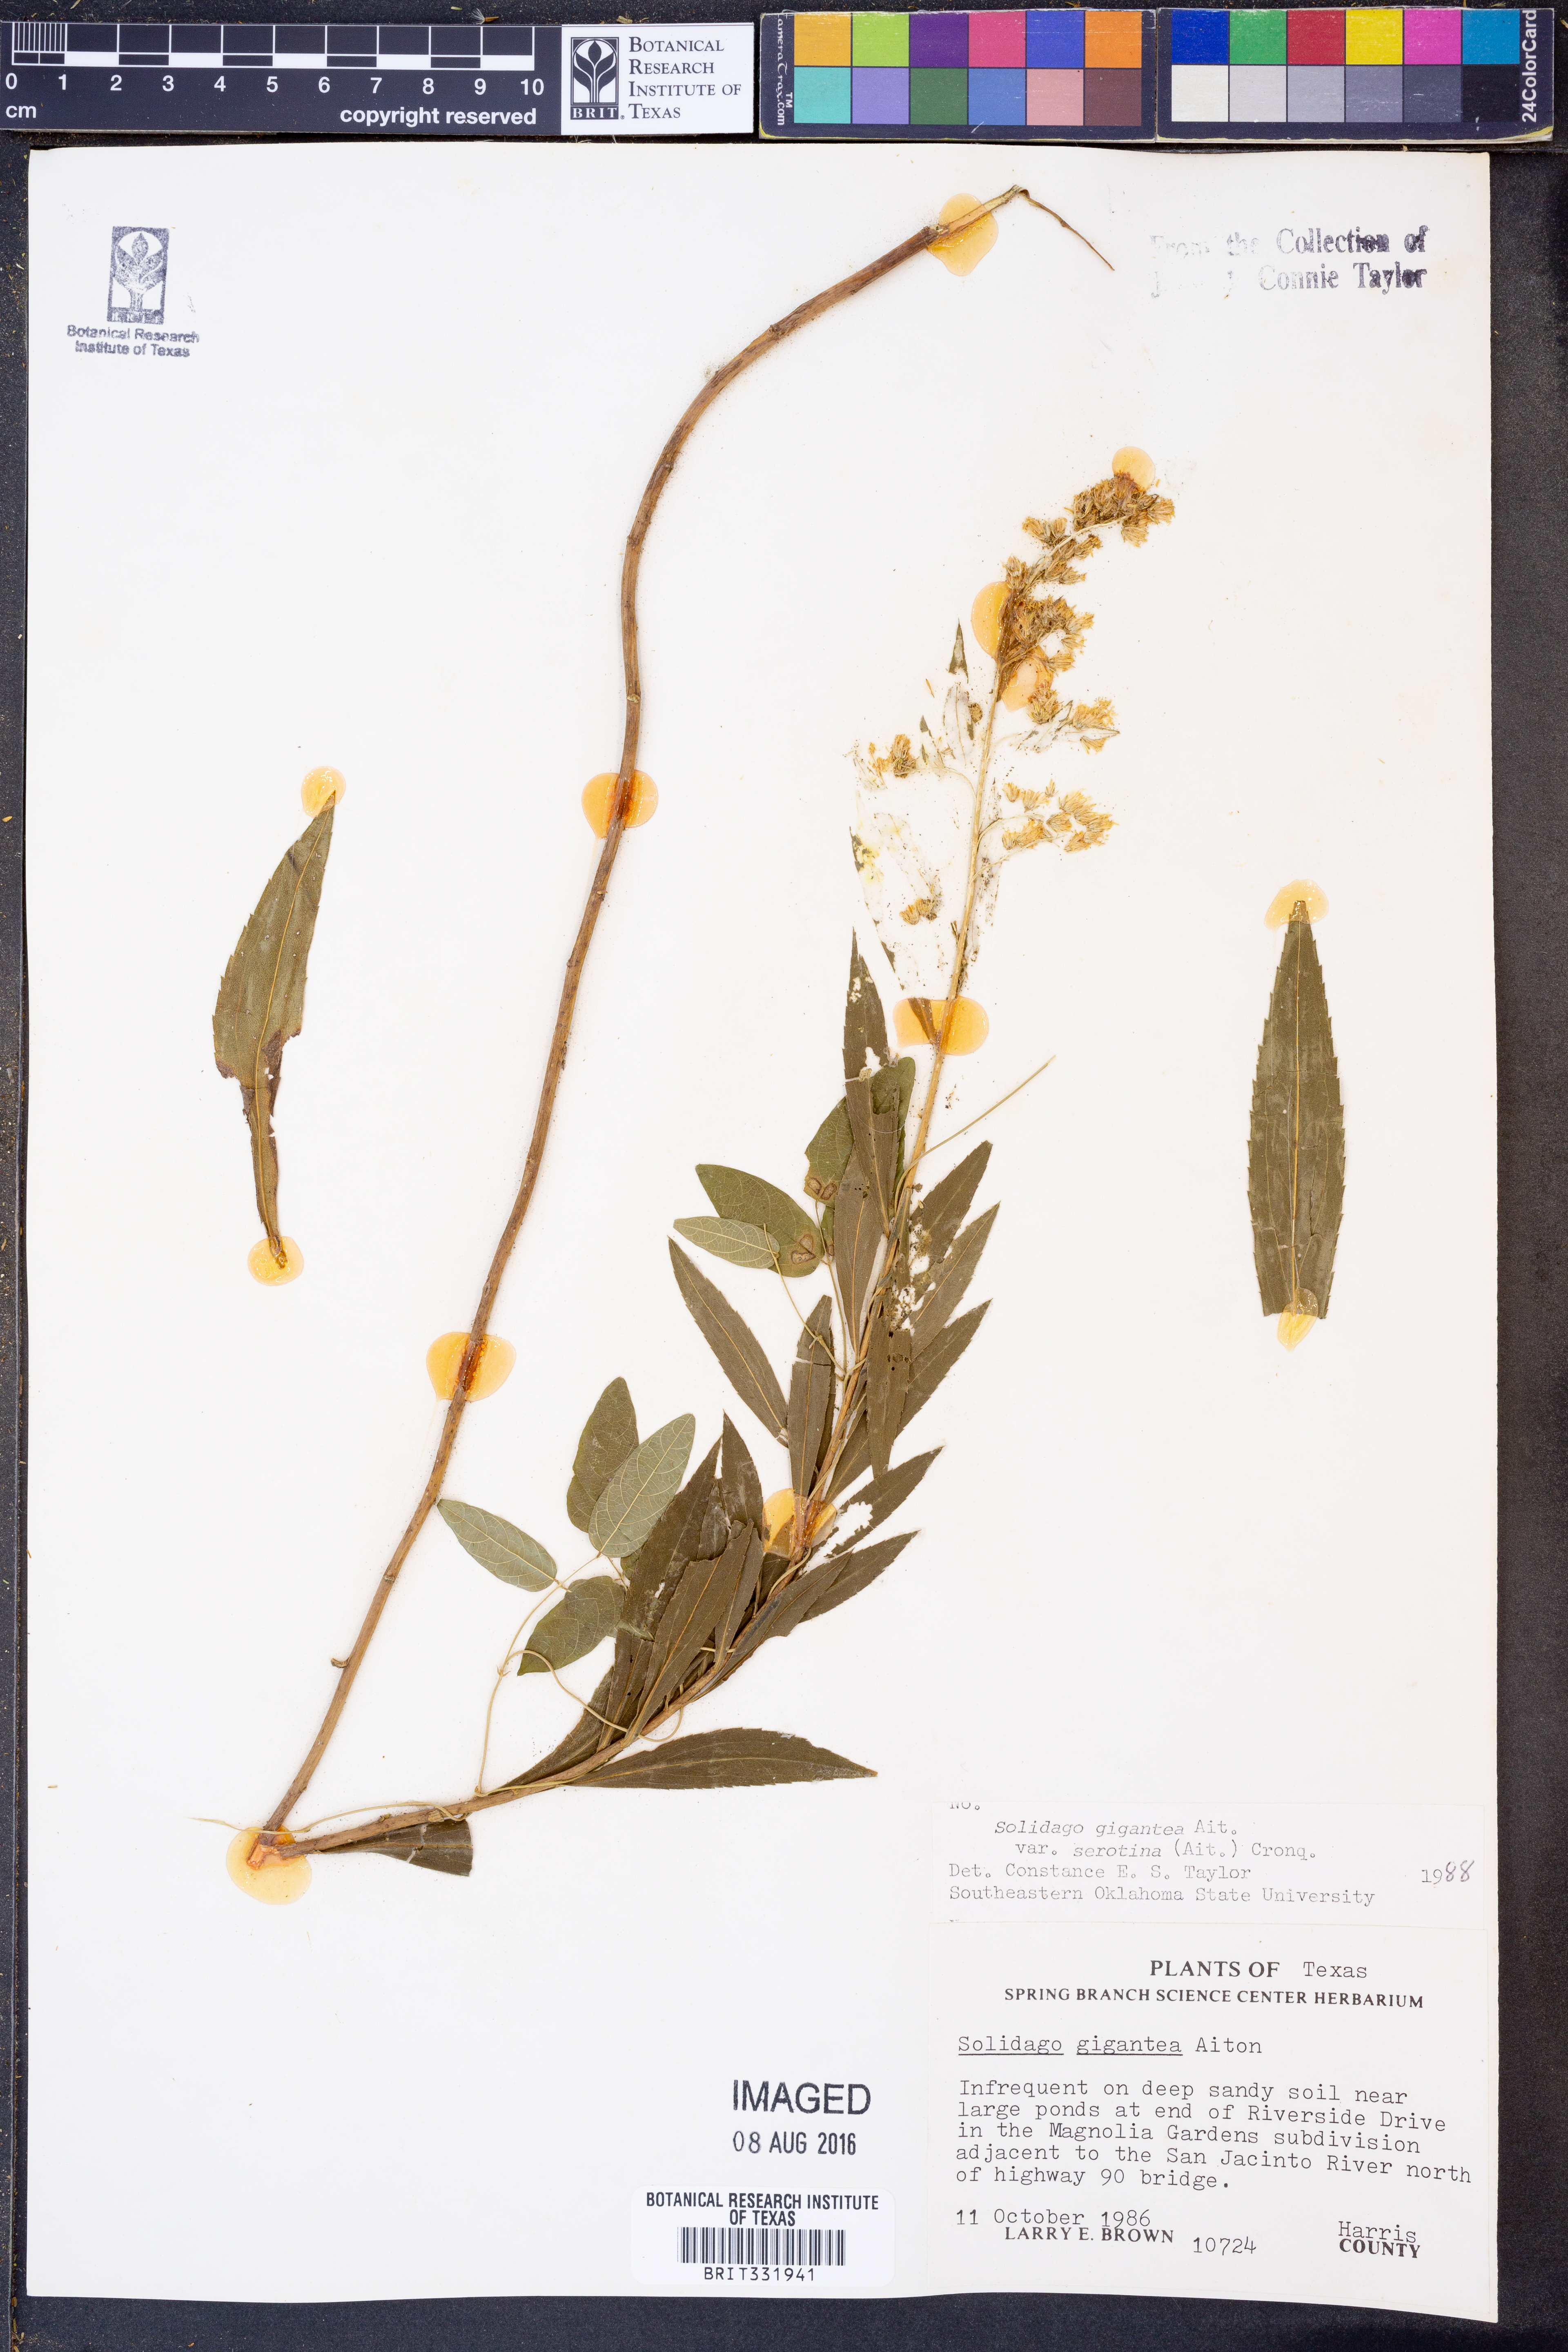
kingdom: Plantae
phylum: Tracheophyta
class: Magnoliopsida
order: Asterales
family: Asteraceae
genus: Solidago
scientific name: Solidago gigantea
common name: Giant goldenrod
